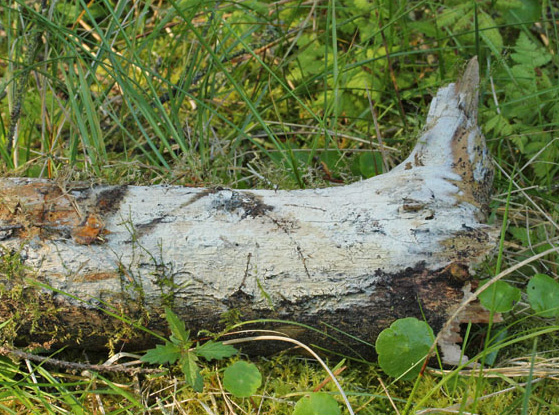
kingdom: Fungi
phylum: Basidiomycota
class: Agaricomycetes
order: Cantharellales
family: Botryobasidiaceae
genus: Botryobasidium
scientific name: Botryobasidium subcoronatum
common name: almindelig spindhinde
